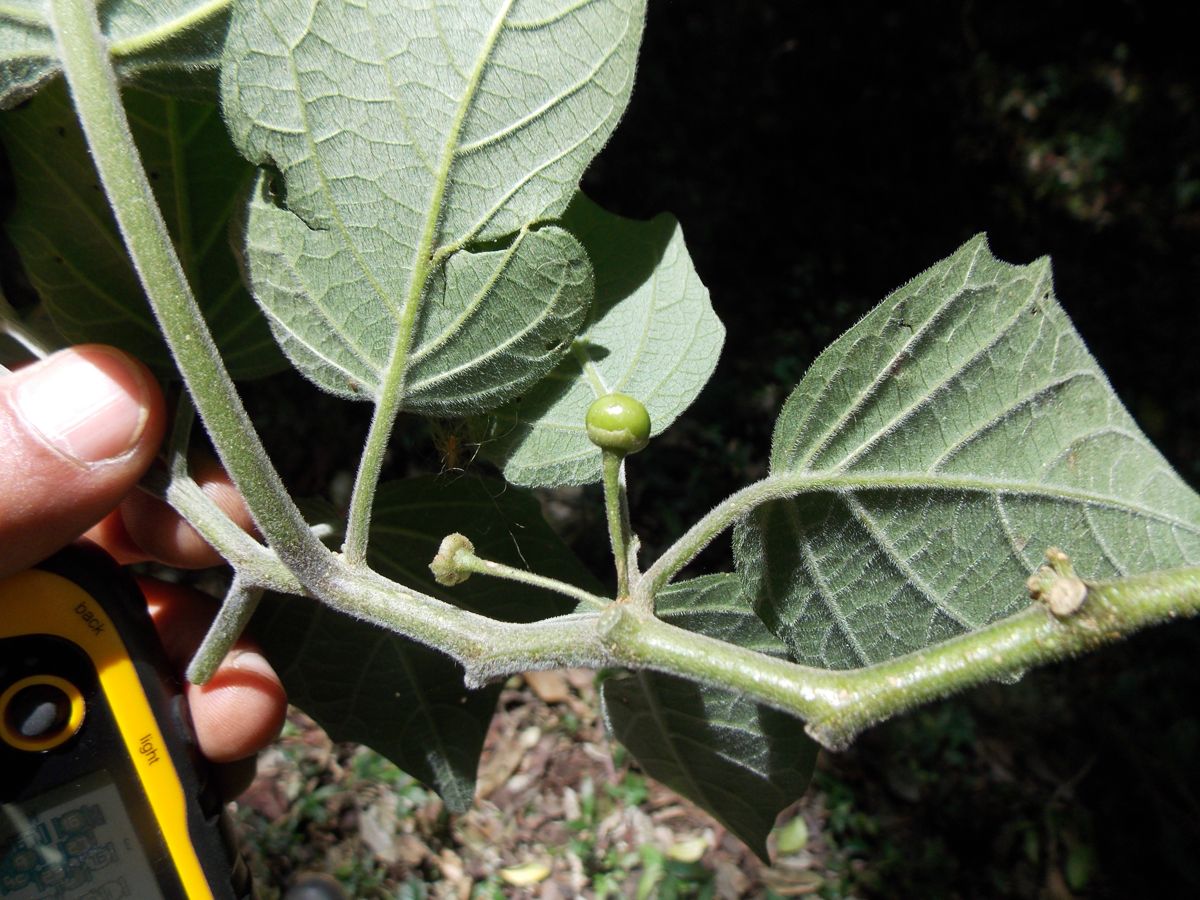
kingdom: Plantae
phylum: Tracheophyta
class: Magnoliopsida
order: Solanales
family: Solanaceae
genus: Brachistus
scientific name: Brachistus stramonifolius
